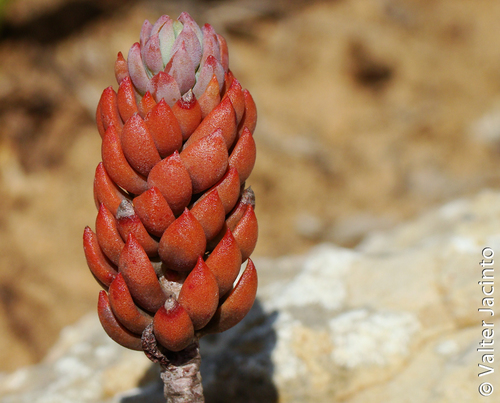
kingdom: Plantae
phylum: Tracheophyta
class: Magnoliopsida
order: Saxifragales
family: Crassulaceae
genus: Petrosedum
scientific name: Petrosedum sediforme
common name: Pale stonecrop
